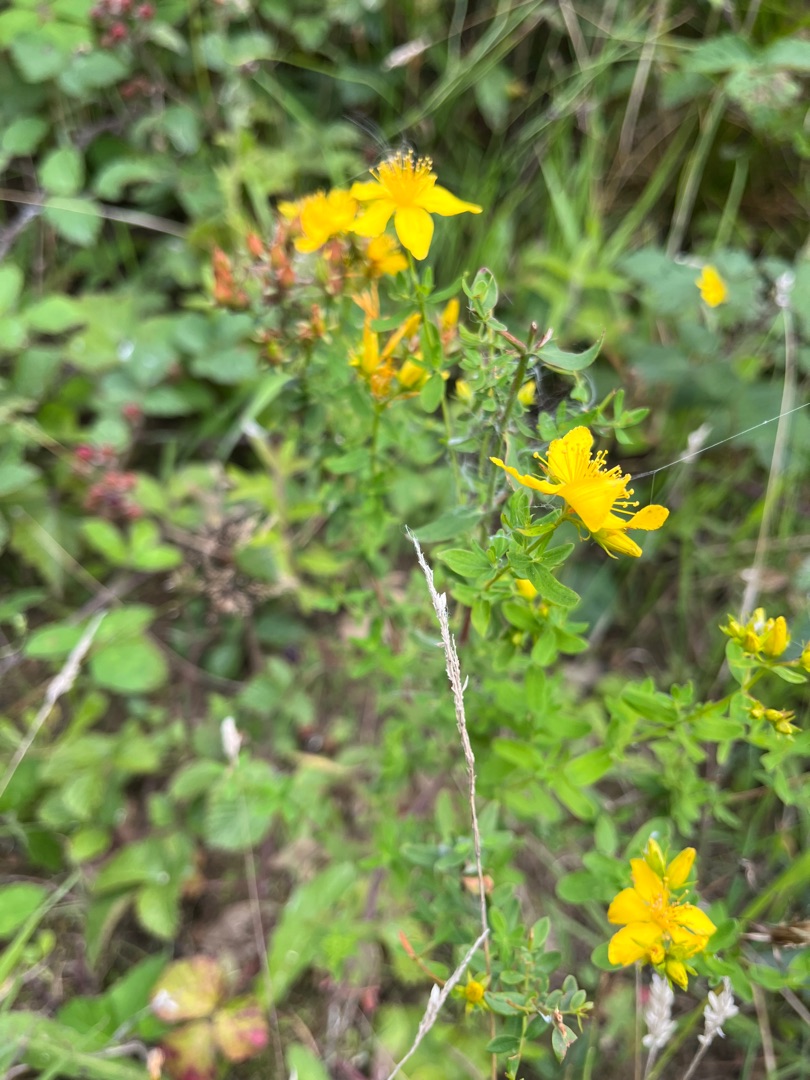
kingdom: Plantae
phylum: Tracheophyta
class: Magnoliopsida
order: Malpighiales
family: Hypericaceae
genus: Hypericum
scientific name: Hypericum perforatum
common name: Prikbladet perikon
